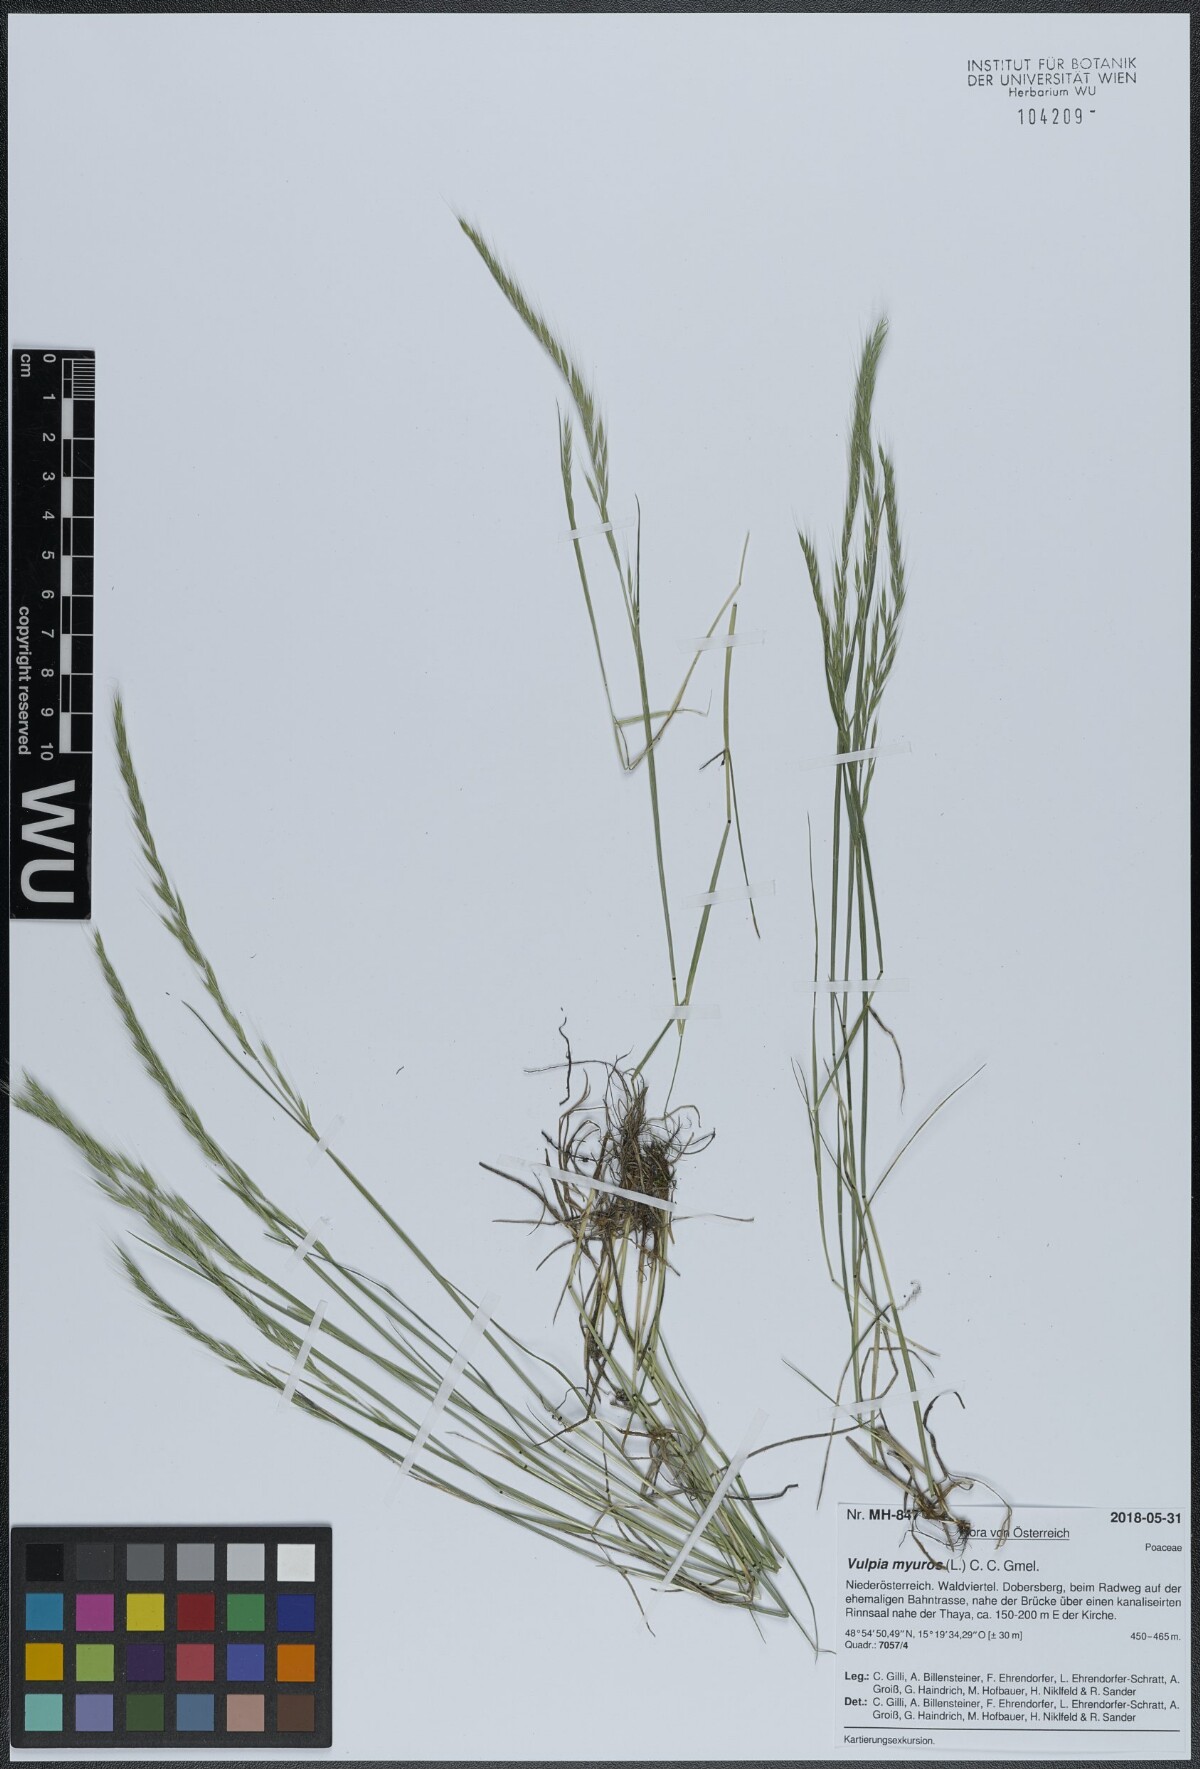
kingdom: Plantae
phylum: Tracheophyta
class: Liliopsida
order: Poales
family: Poaceae
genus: Festuca
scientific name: Festuca myuros
